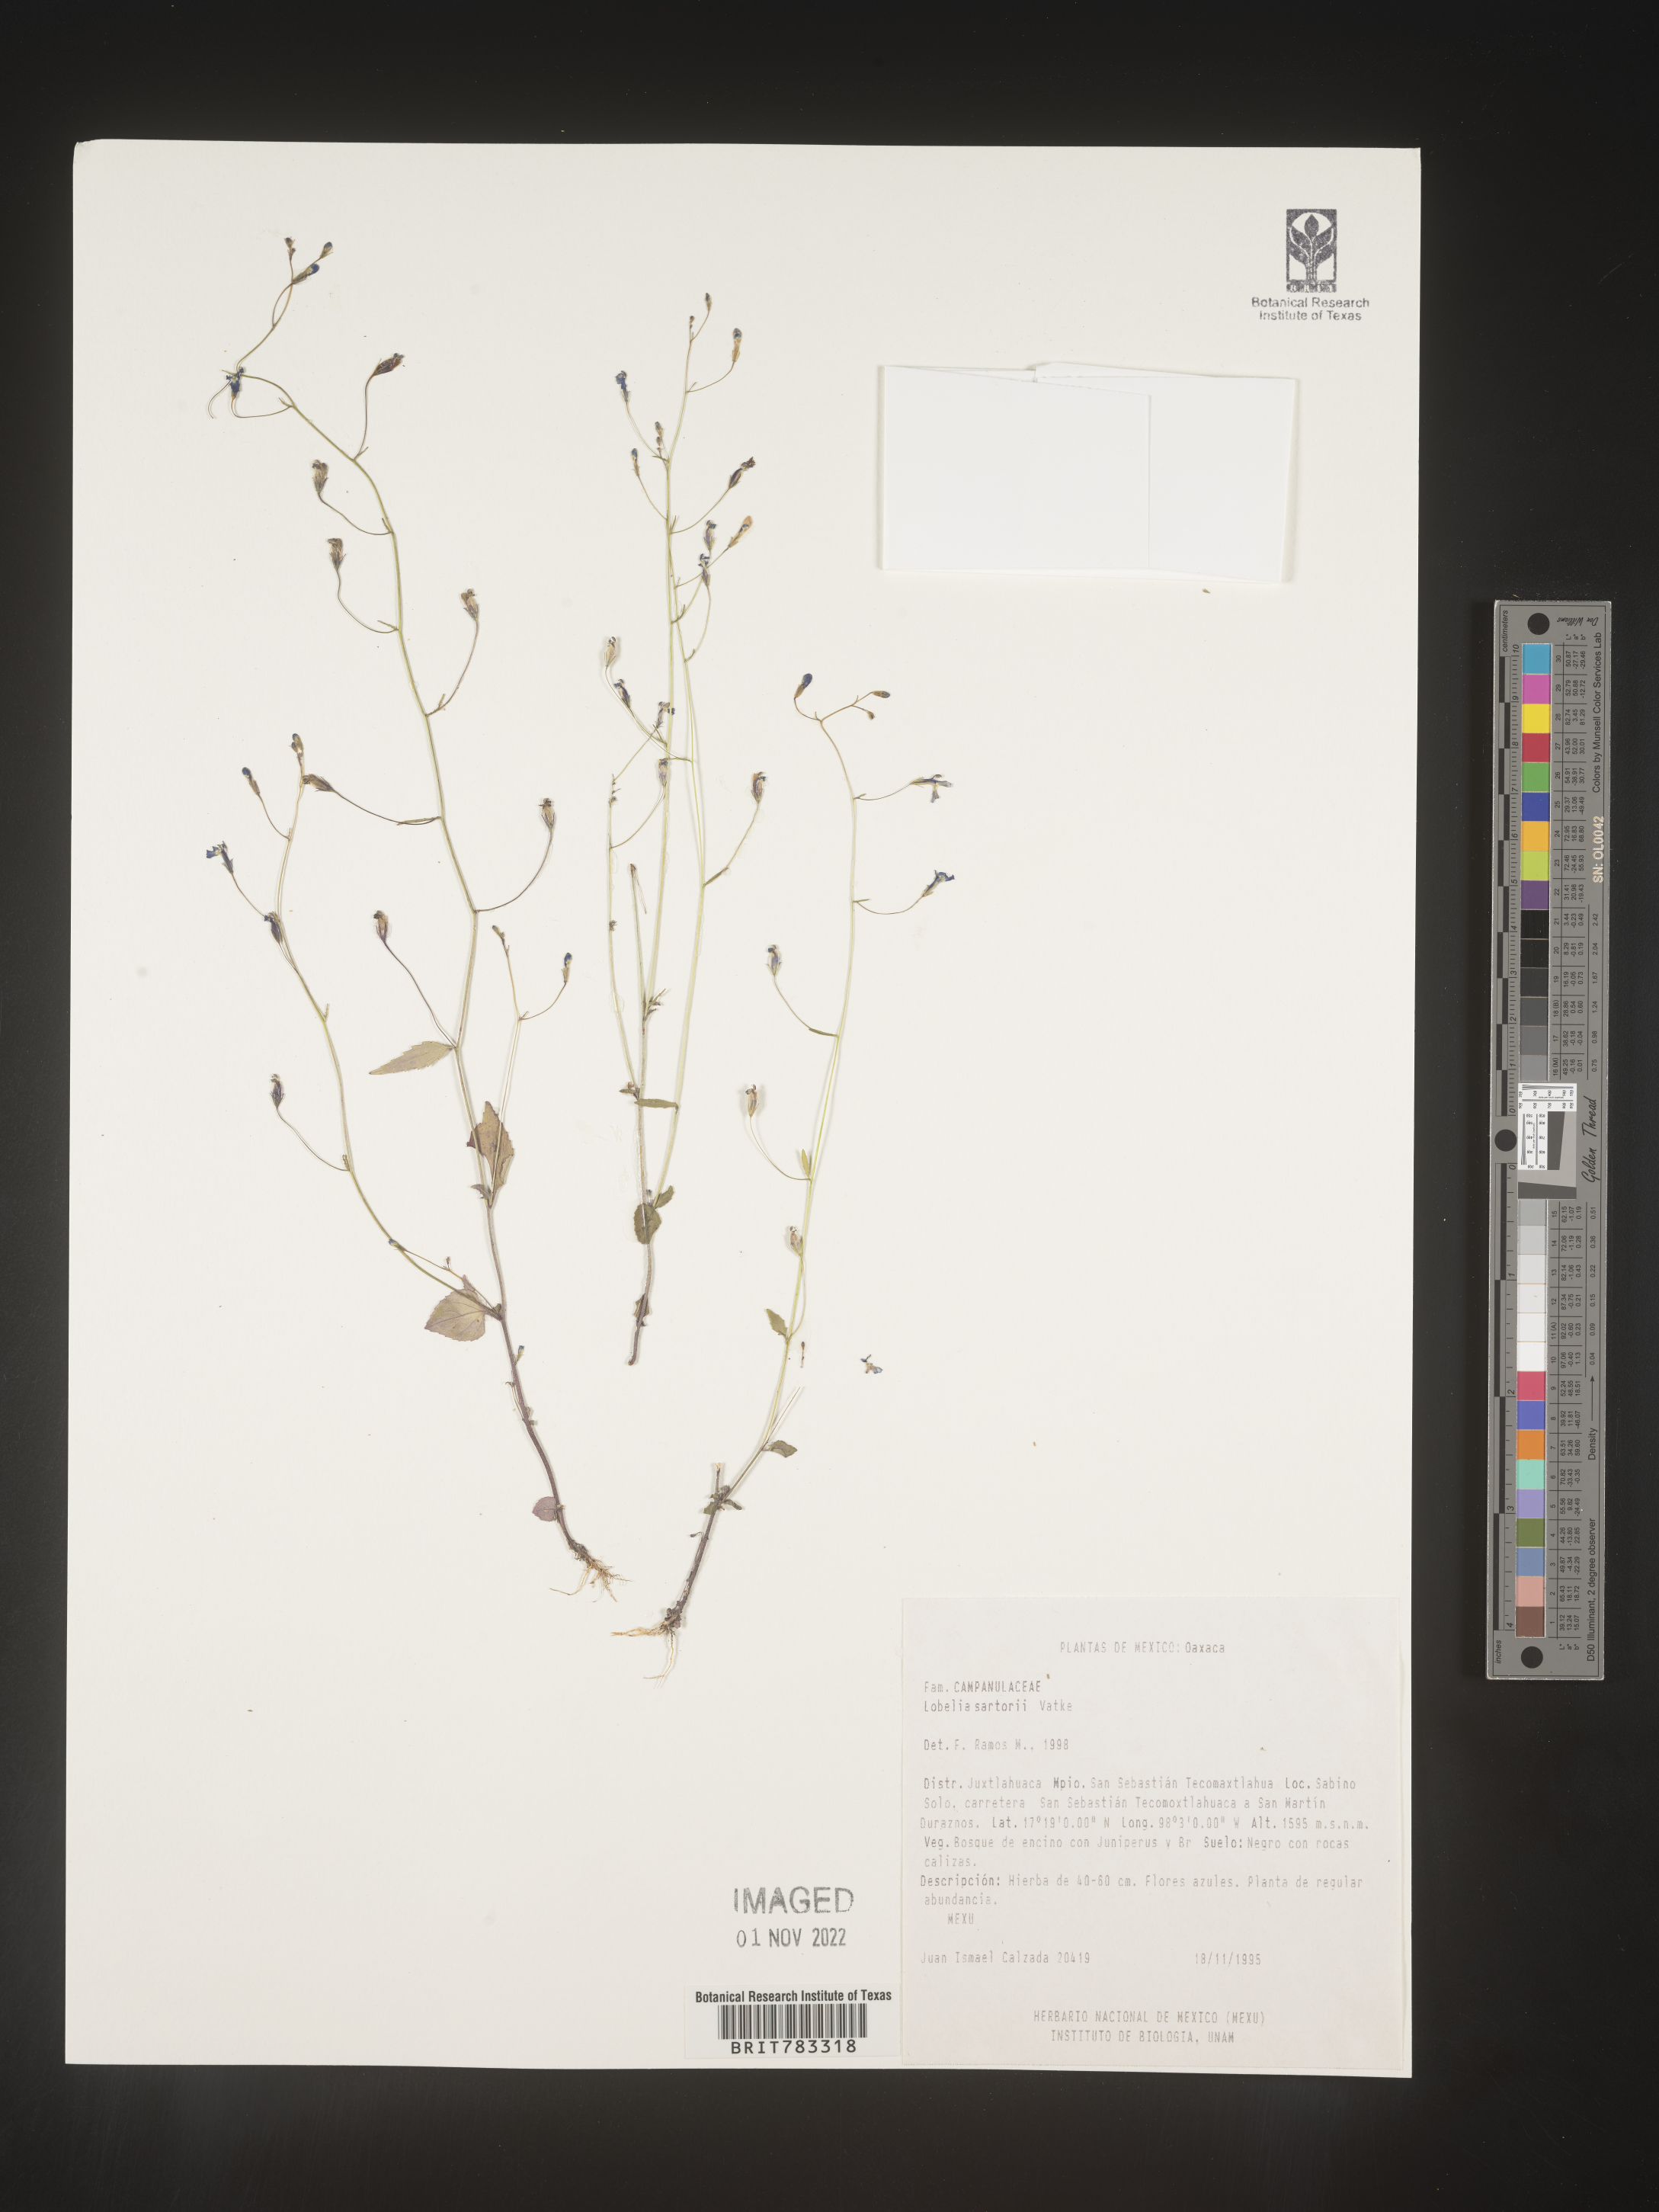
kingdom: Plantae
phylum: Tracheophyta
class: Magnoliopsida
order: Asterales
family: Campanulaceae
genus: Lobelia
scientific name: Lobelia
